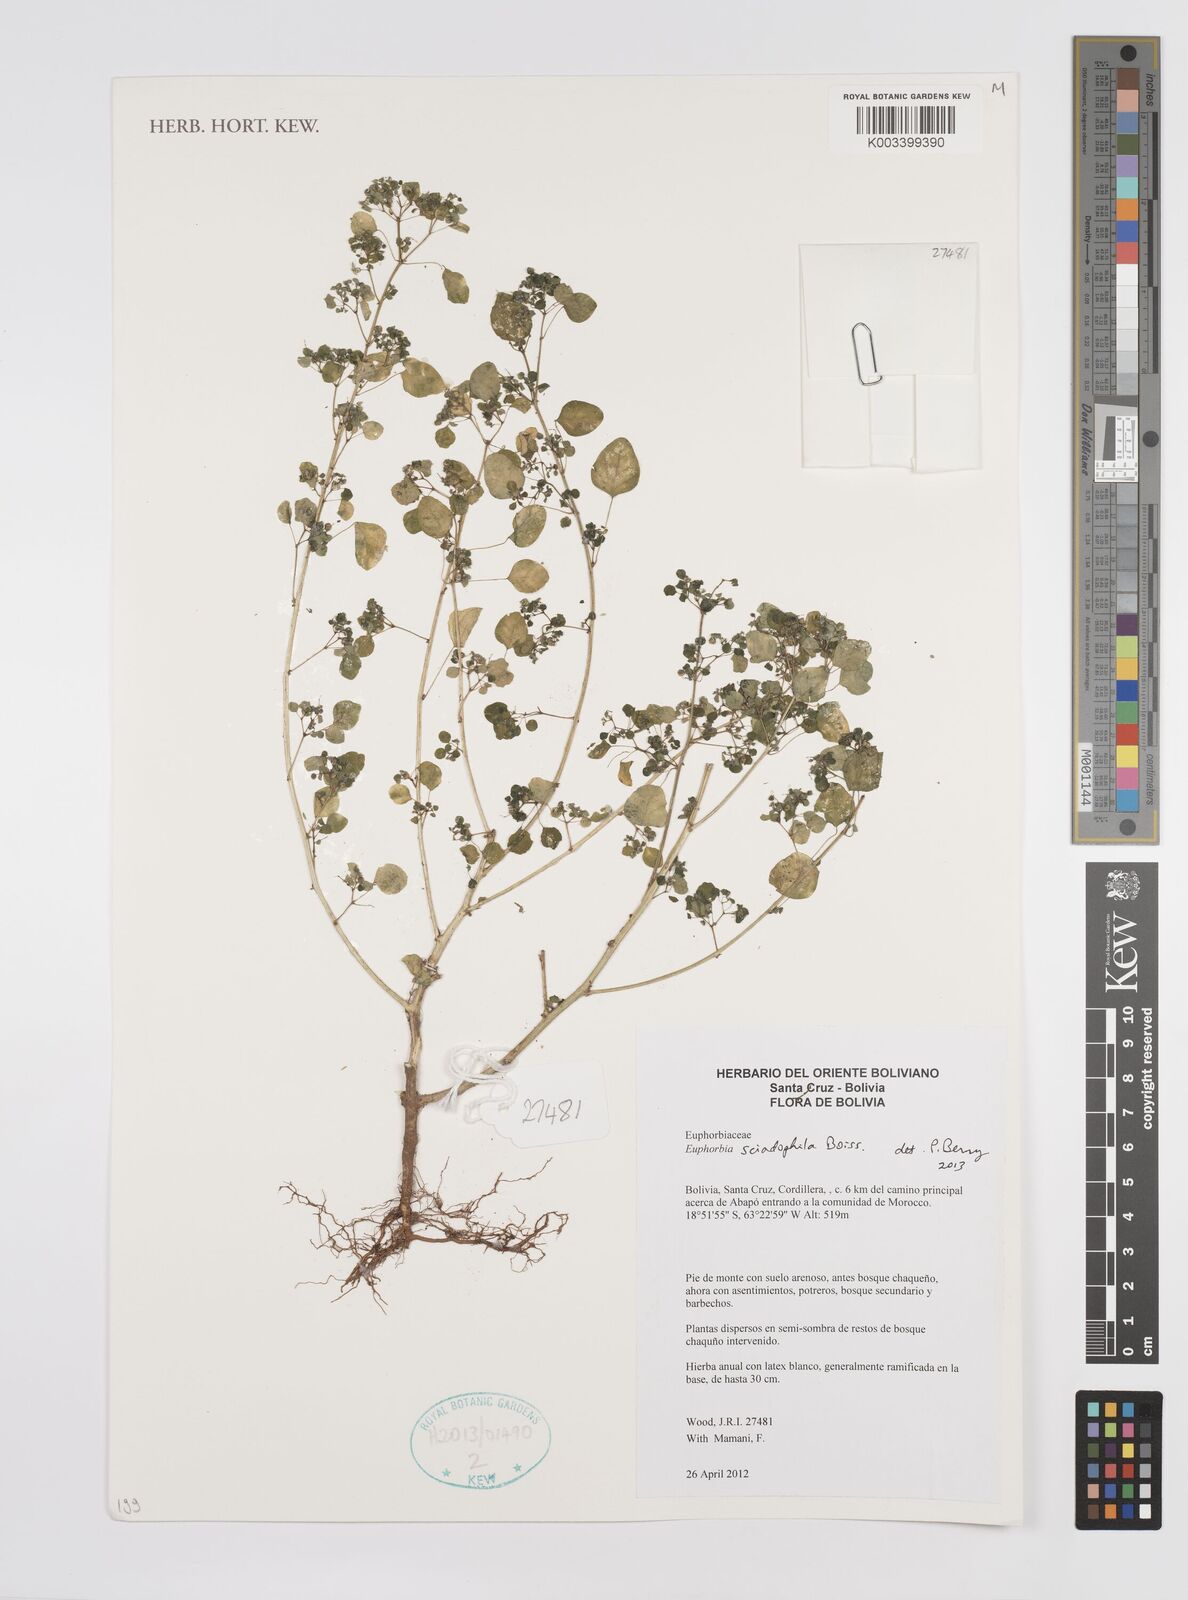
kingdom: Plantae
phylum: Tracheophyta
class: Magnoliopsida
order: Malpighiales
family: Euphorbiaceae
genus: Euphorbia
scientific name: Euphorbia sciadophila
